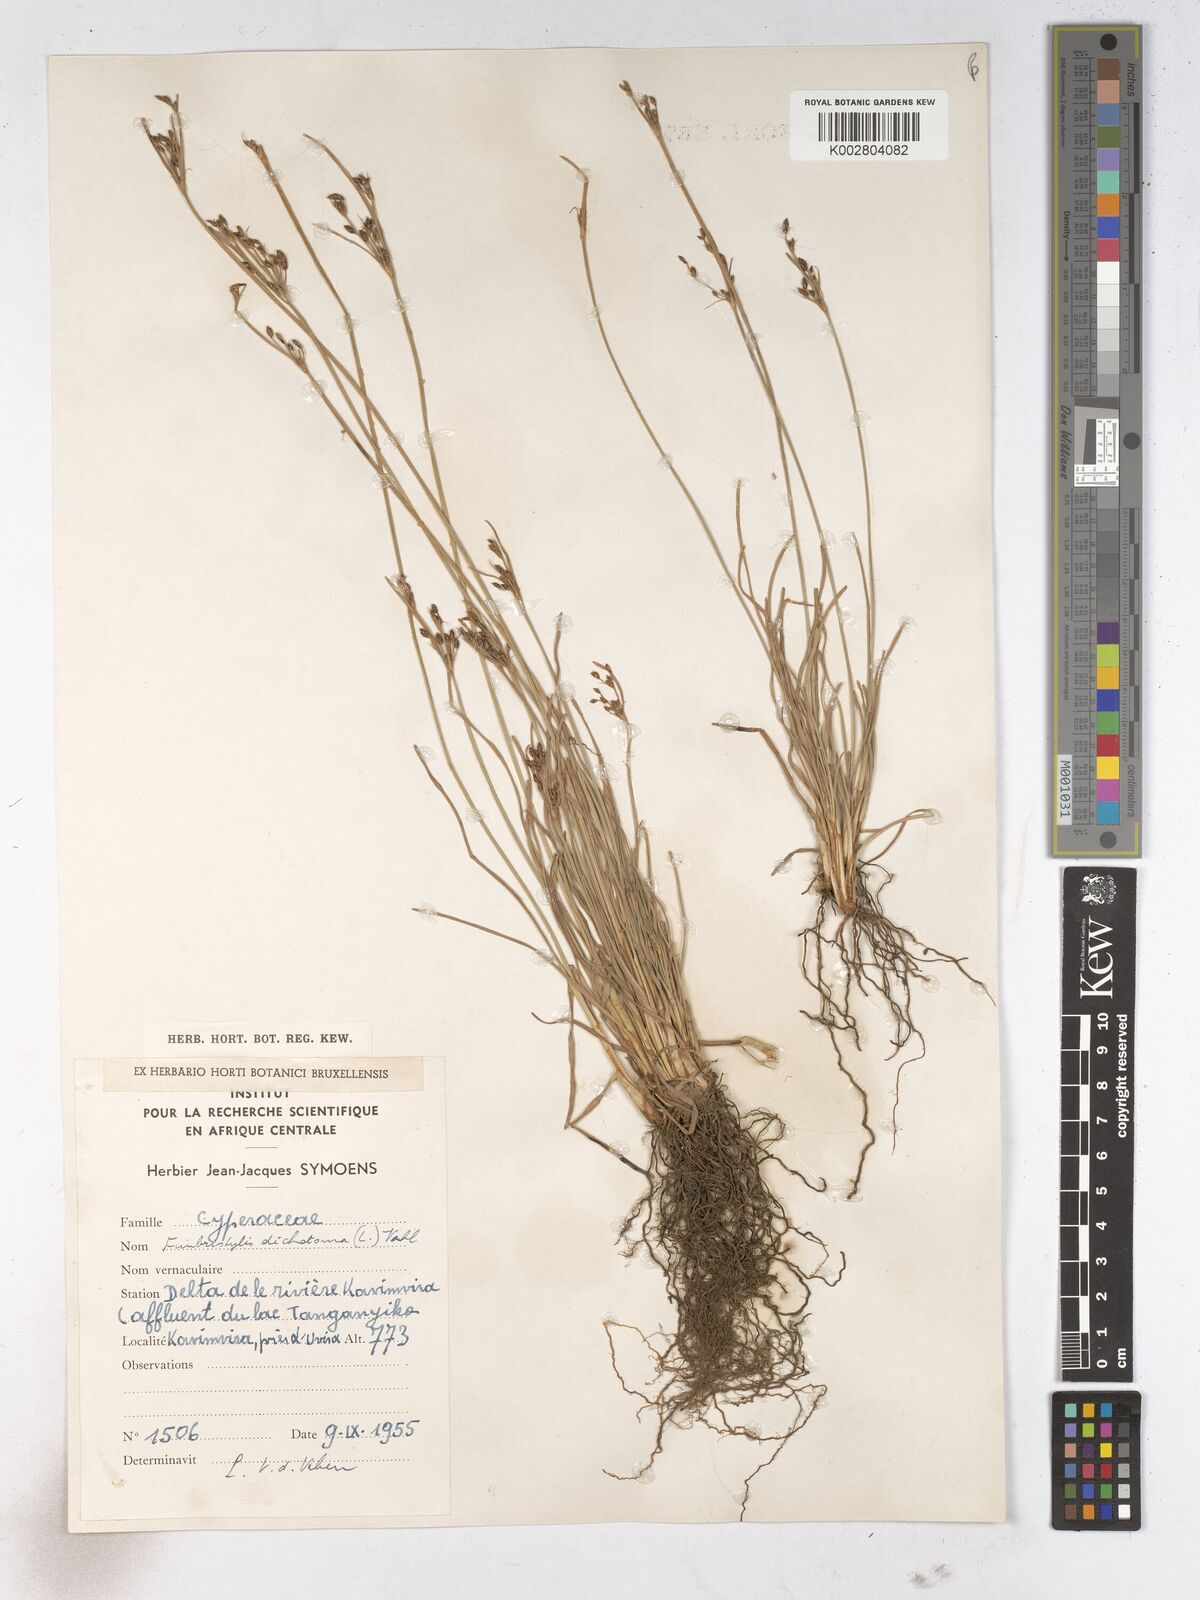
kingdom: Plantae
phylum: Tracheophyta
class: Liliopsida
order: Poales
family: Cyperaceae
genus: Fimbristylis
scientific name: Fimbristylis dichotoma
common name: Forked fimbry
